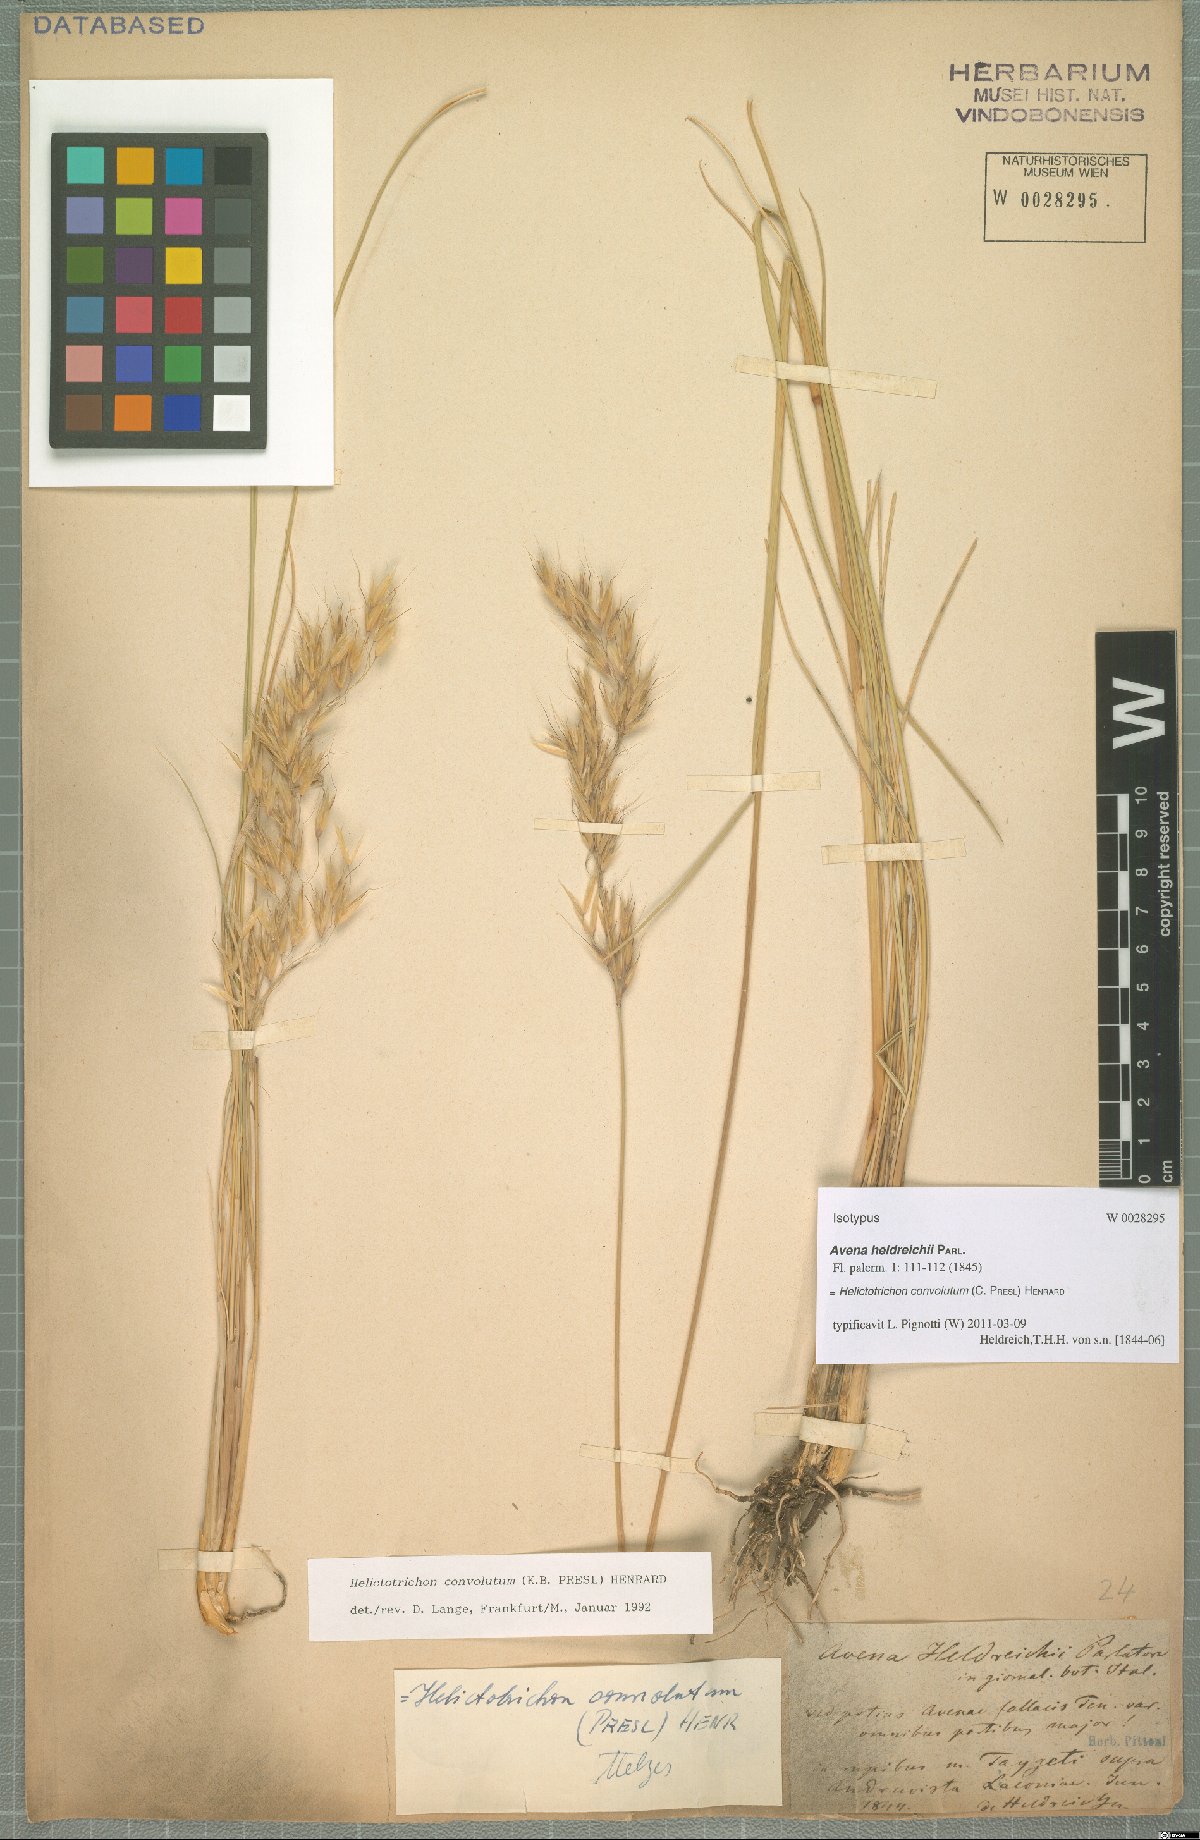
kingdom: Plantae
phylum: Tracheophyta
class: Liliopsida
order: Poales
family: Poaceae
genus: Helictotrichon
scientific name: Helictotrichon convolutum
